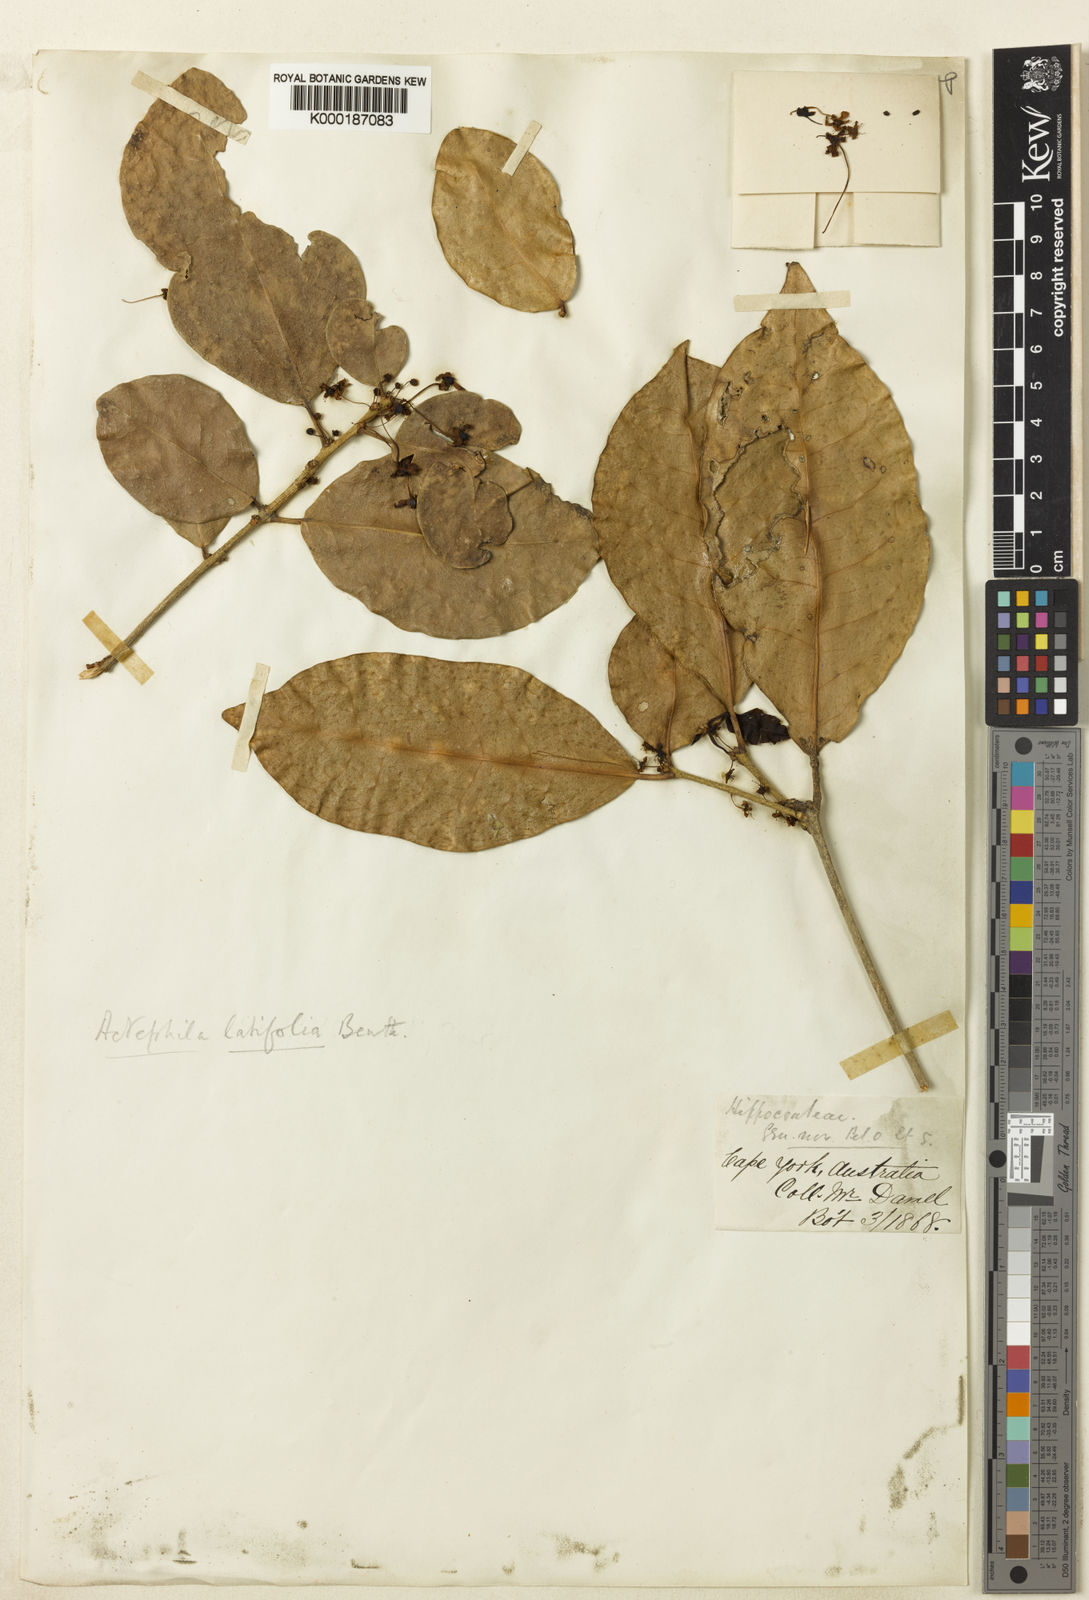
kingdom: Plantae
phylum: Tracheophyta
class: Magnoliopsida
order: Malpighiales
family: Phyllanthaceae
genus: Actephila
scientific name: Actephila latifolia
